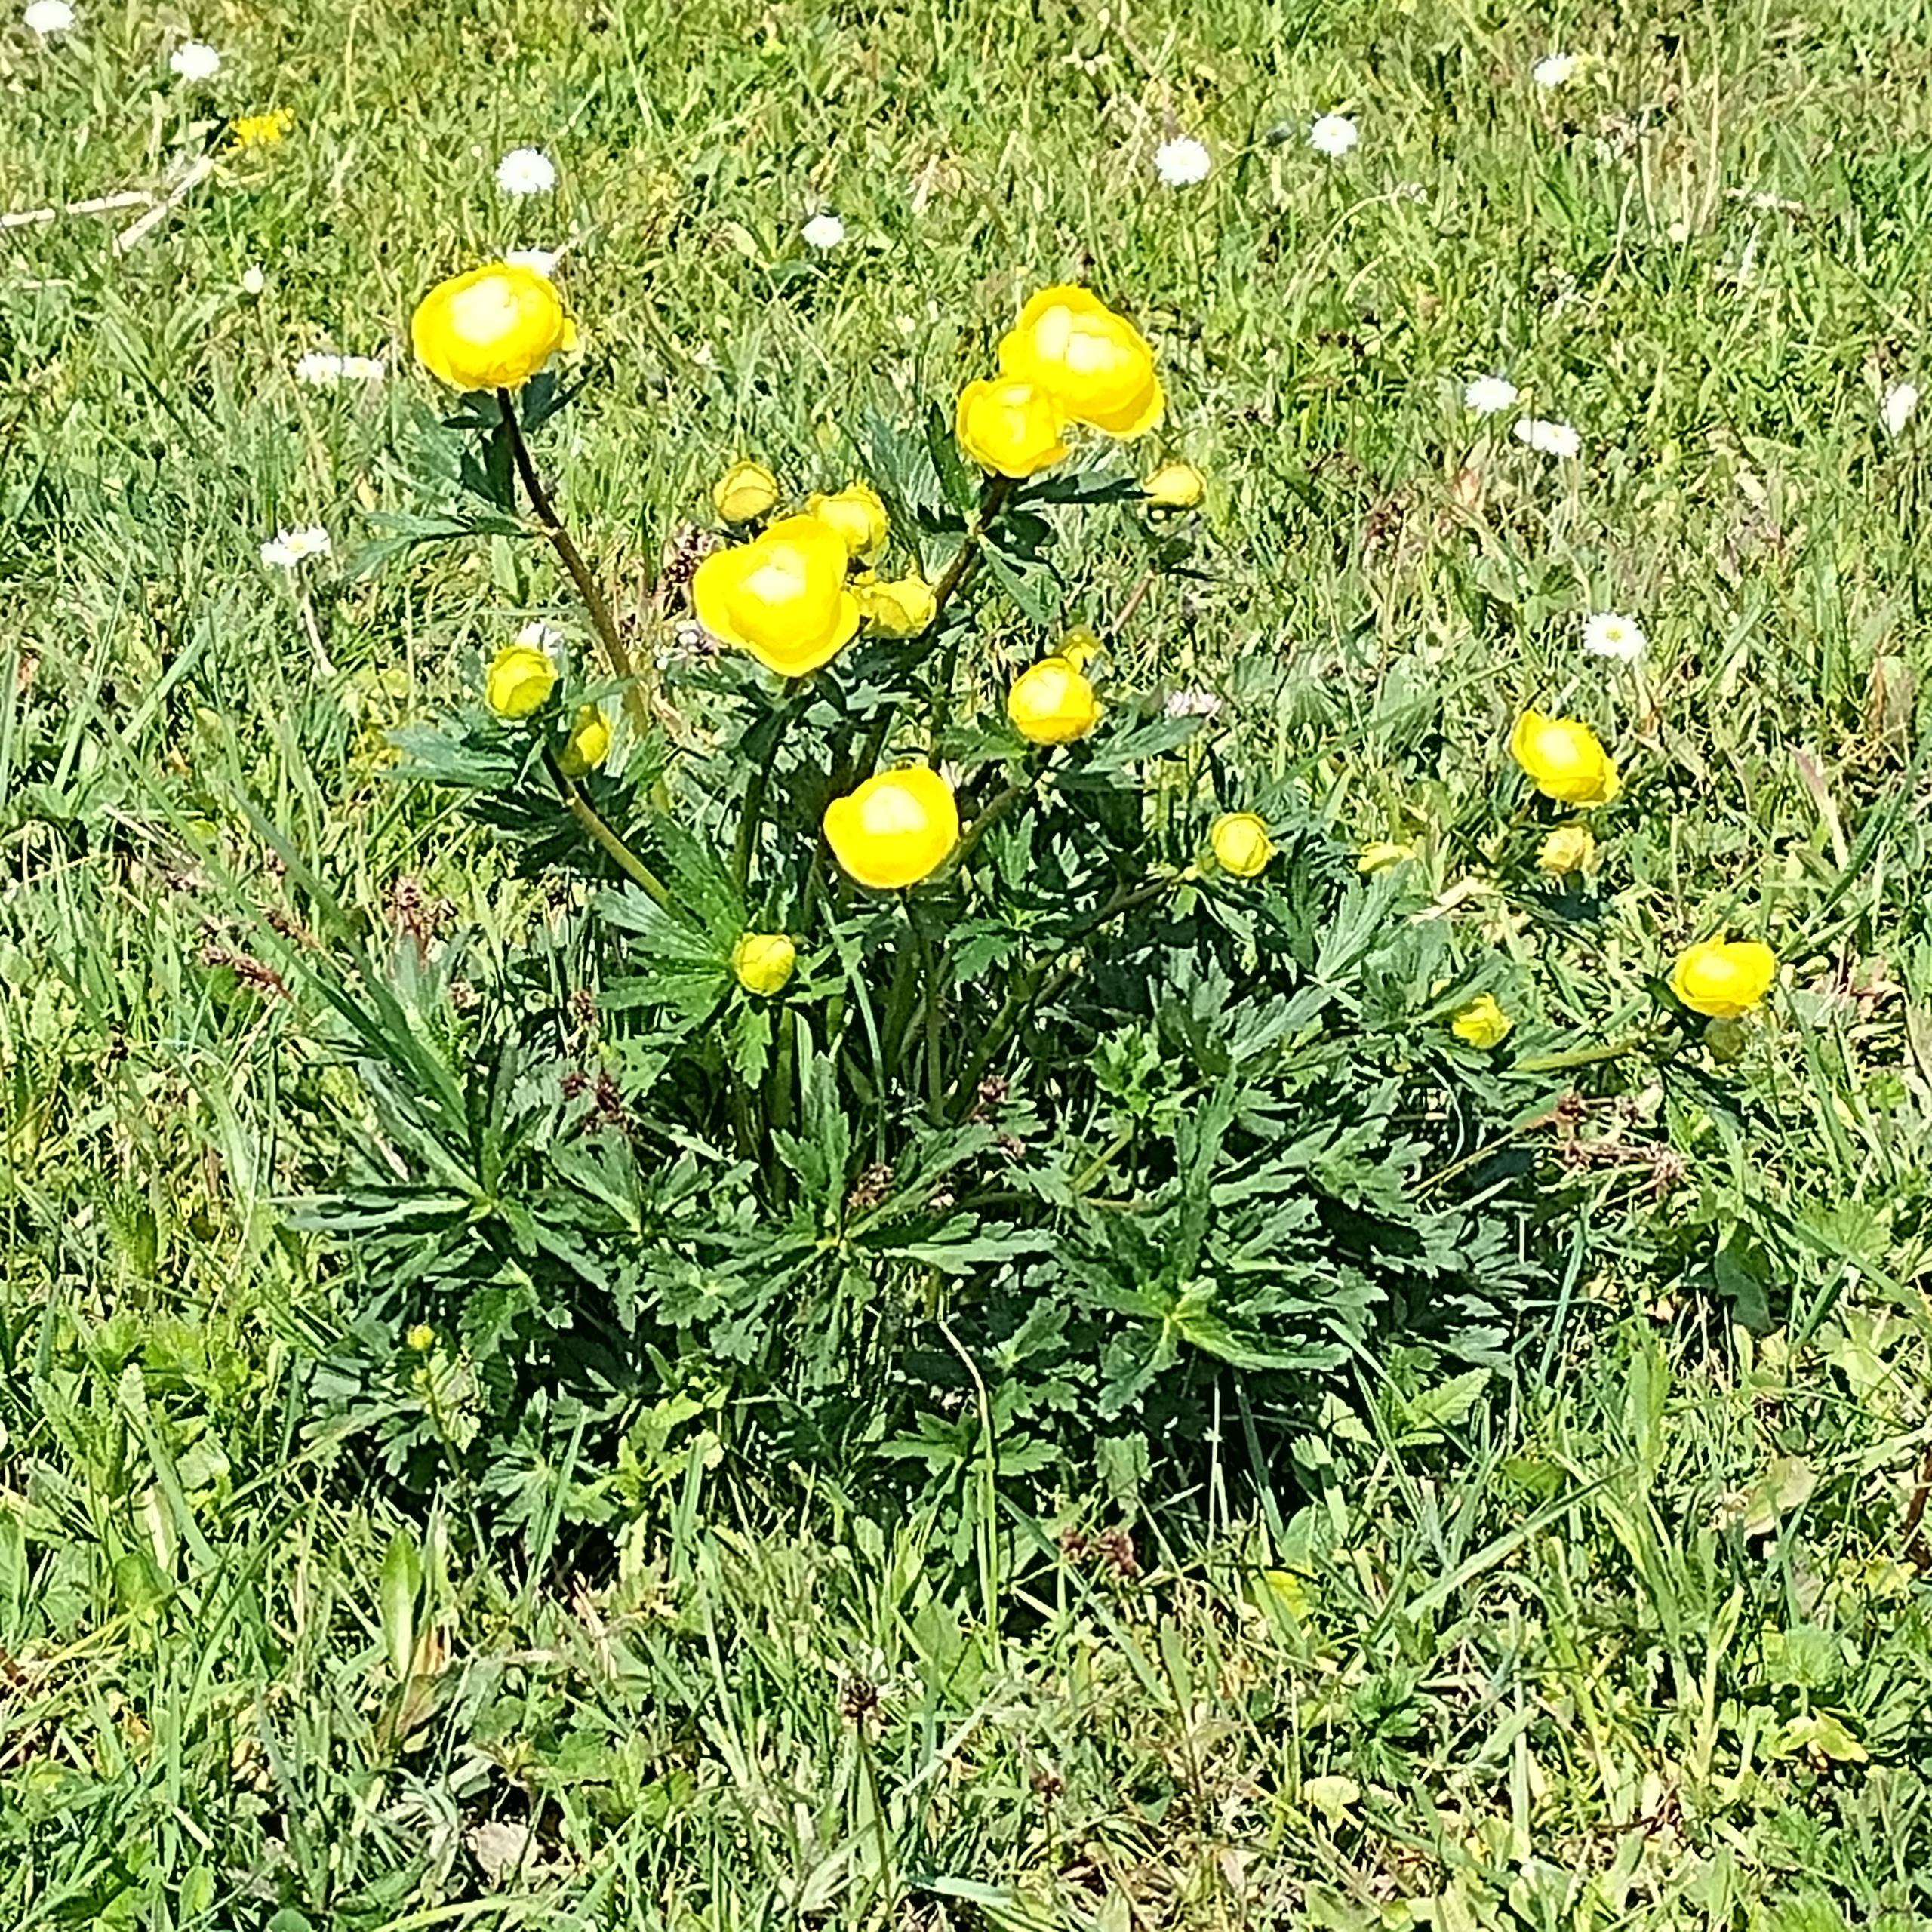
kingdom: Plantae
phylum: Tracheophyta
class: Magnoliopsida
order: Ranunculales
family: Ranunculaceae
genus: Trollius
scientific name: Trollius europaeus
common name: Engblomme
